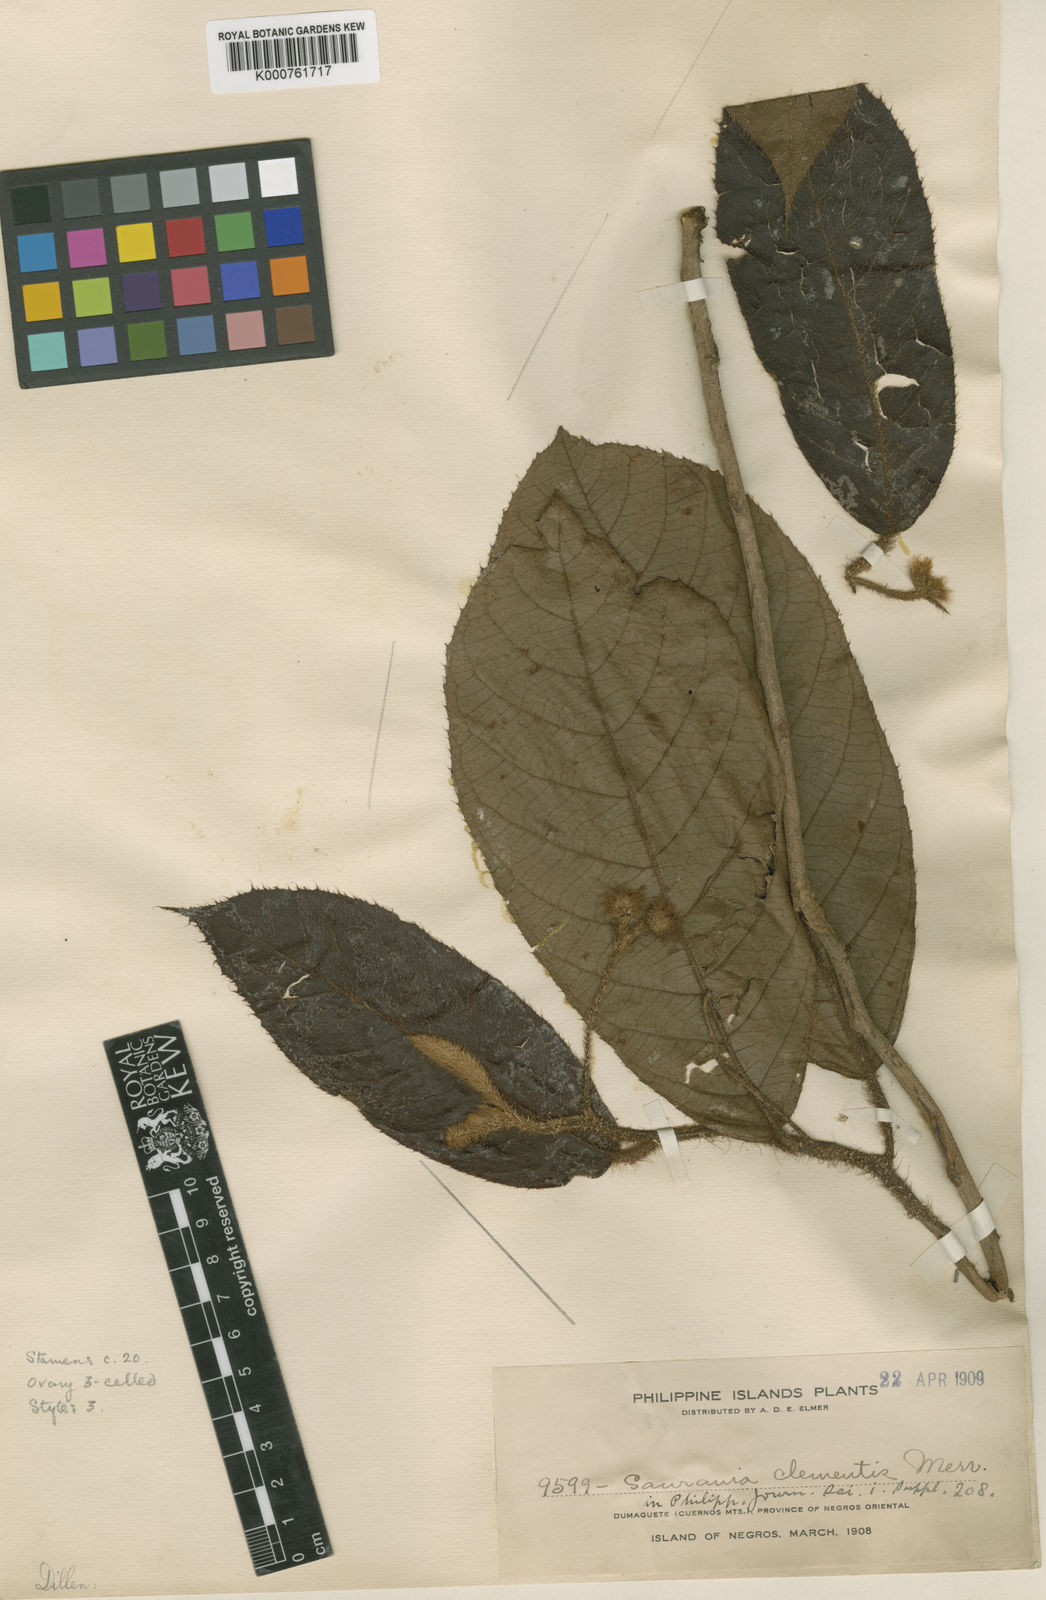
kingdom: Plantae
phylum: Tracheophyta
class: Magnoliopsida
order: Ericales
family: Actinidiaceae
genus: Saurauia
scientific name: Saurauia clementis
